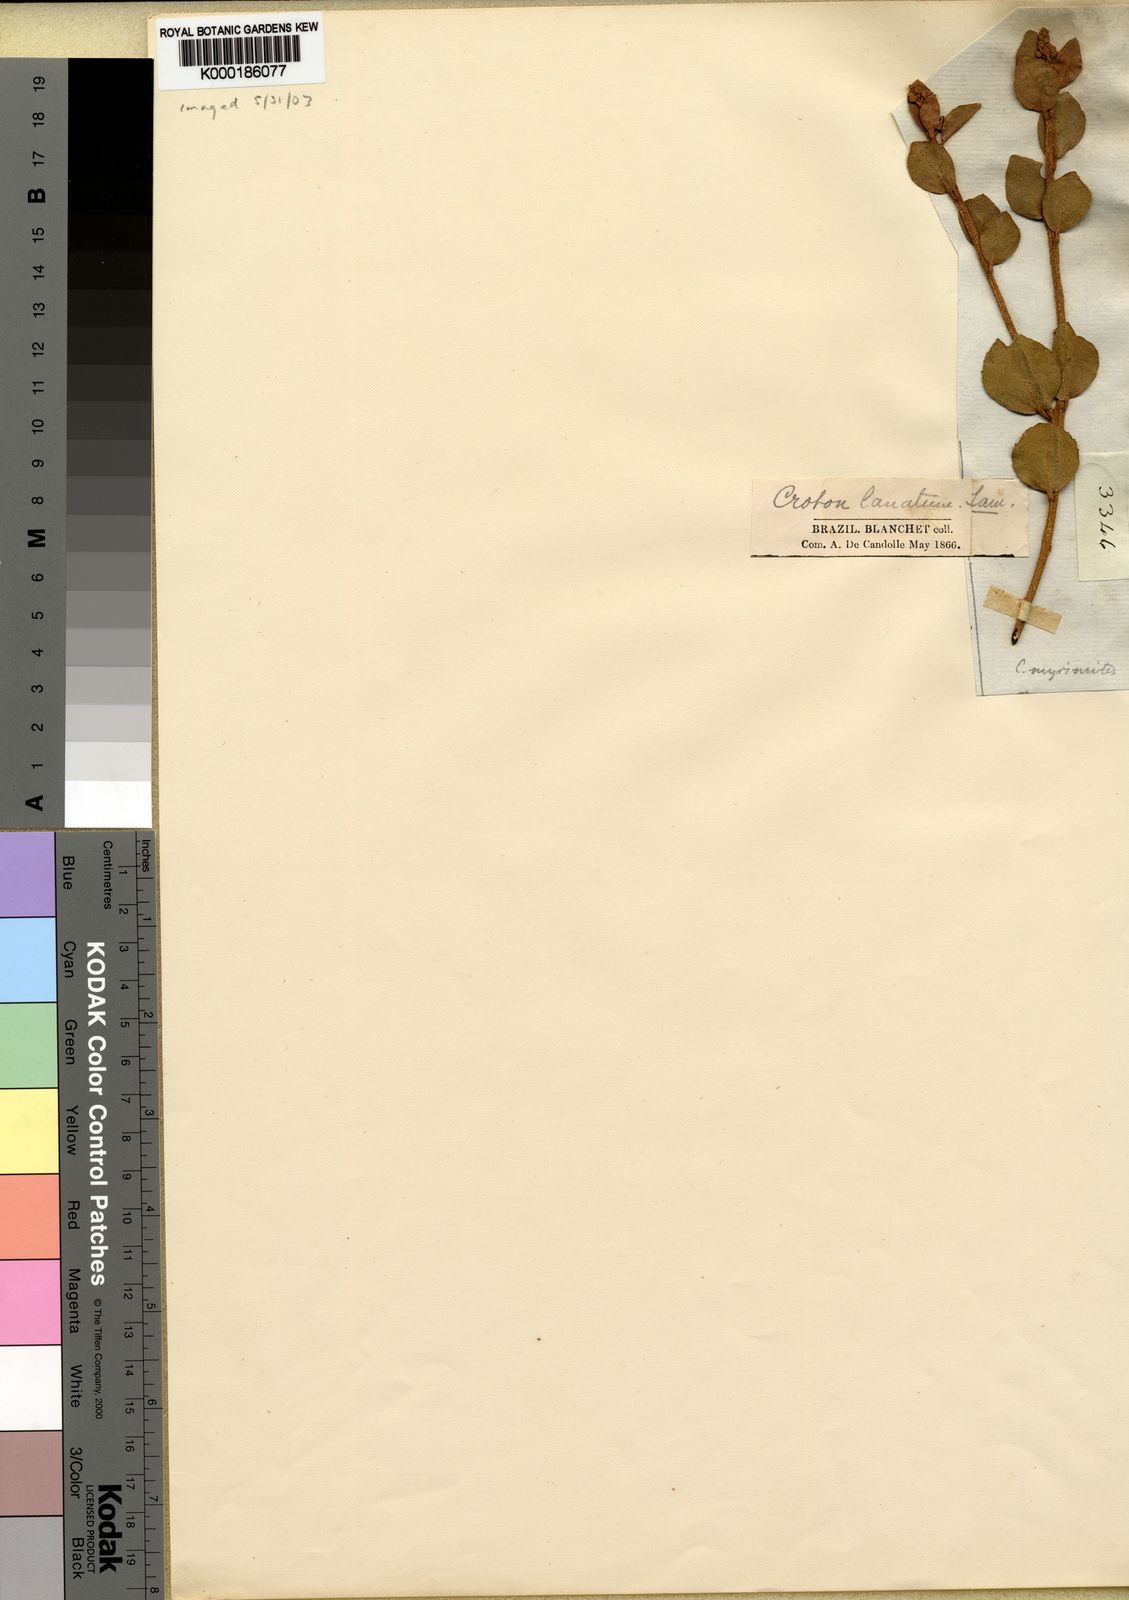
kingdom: Plantae
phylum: Tracheophyta
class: Magnoliopsida
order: Malpighiales
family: Euphorbiaceae
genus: Croton
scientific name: Croton myrsinites
